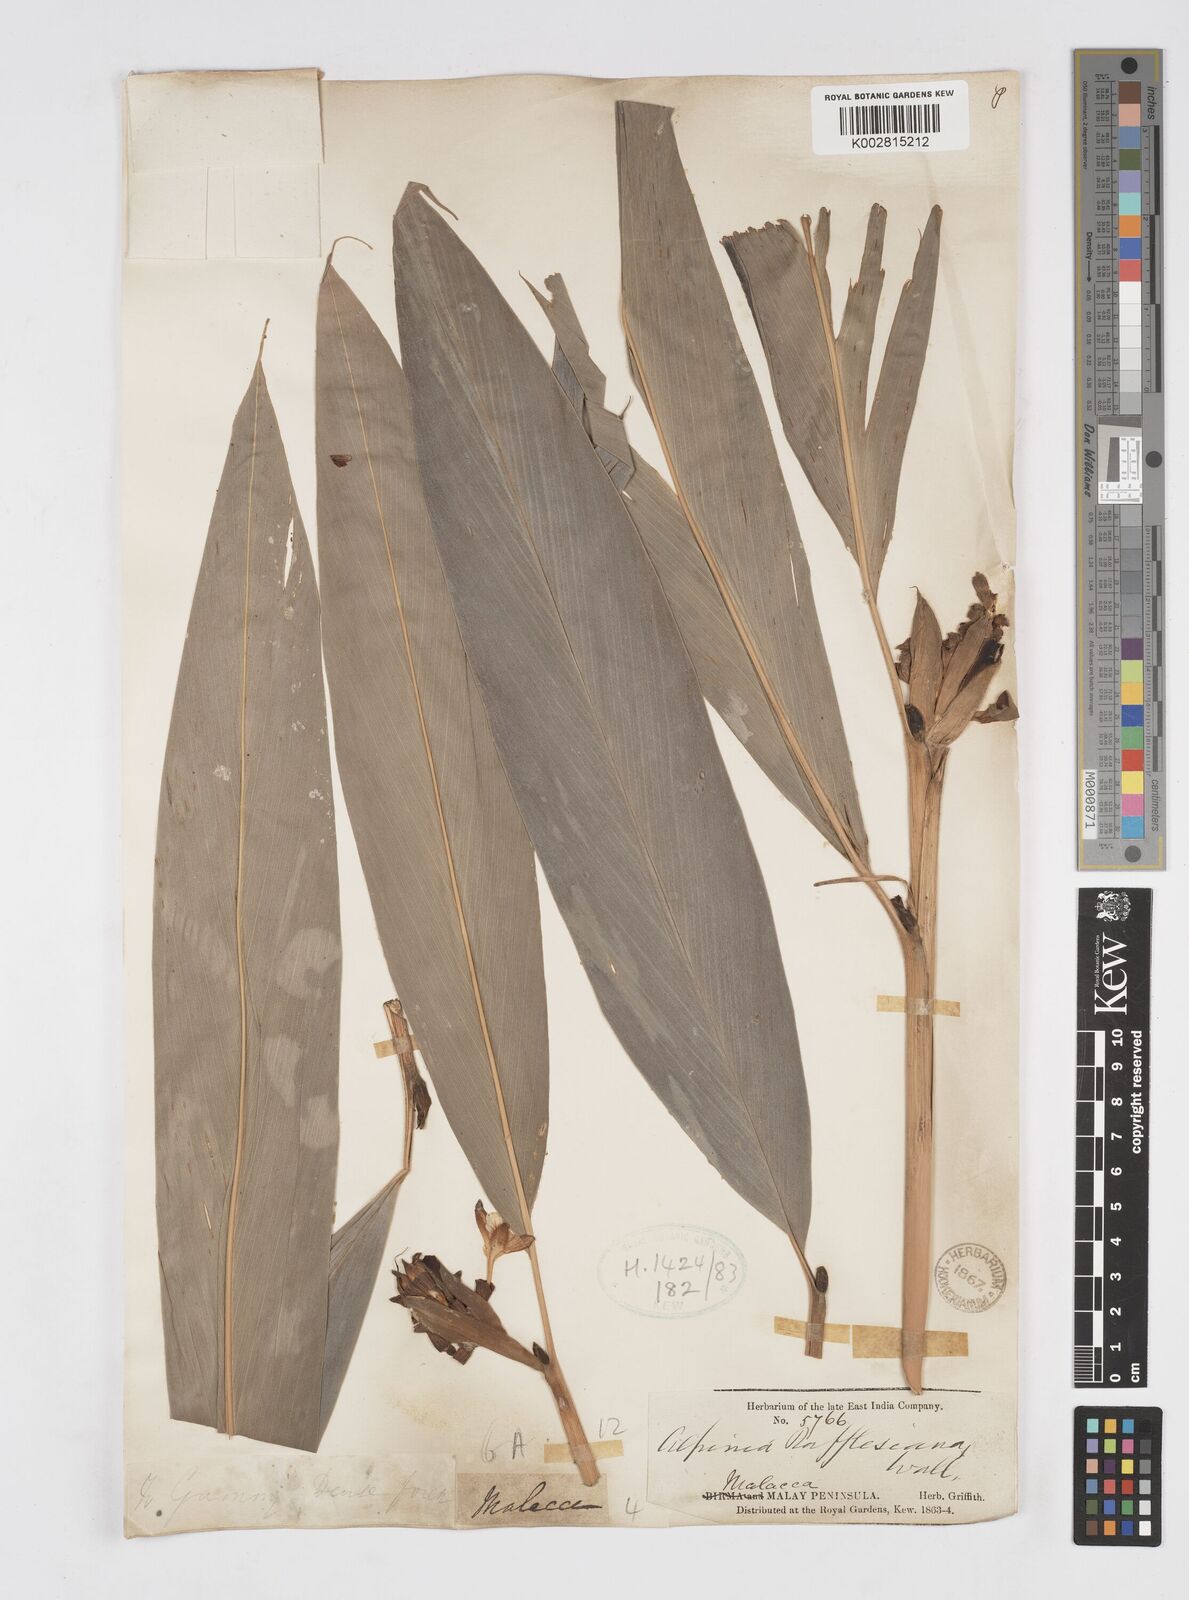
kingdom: Plantae
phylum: Tracheophyta
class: Liliopsida
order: Zingiberales
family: Zingiberaceae
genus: Alpinia
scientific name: Alpinia rafflesiana
